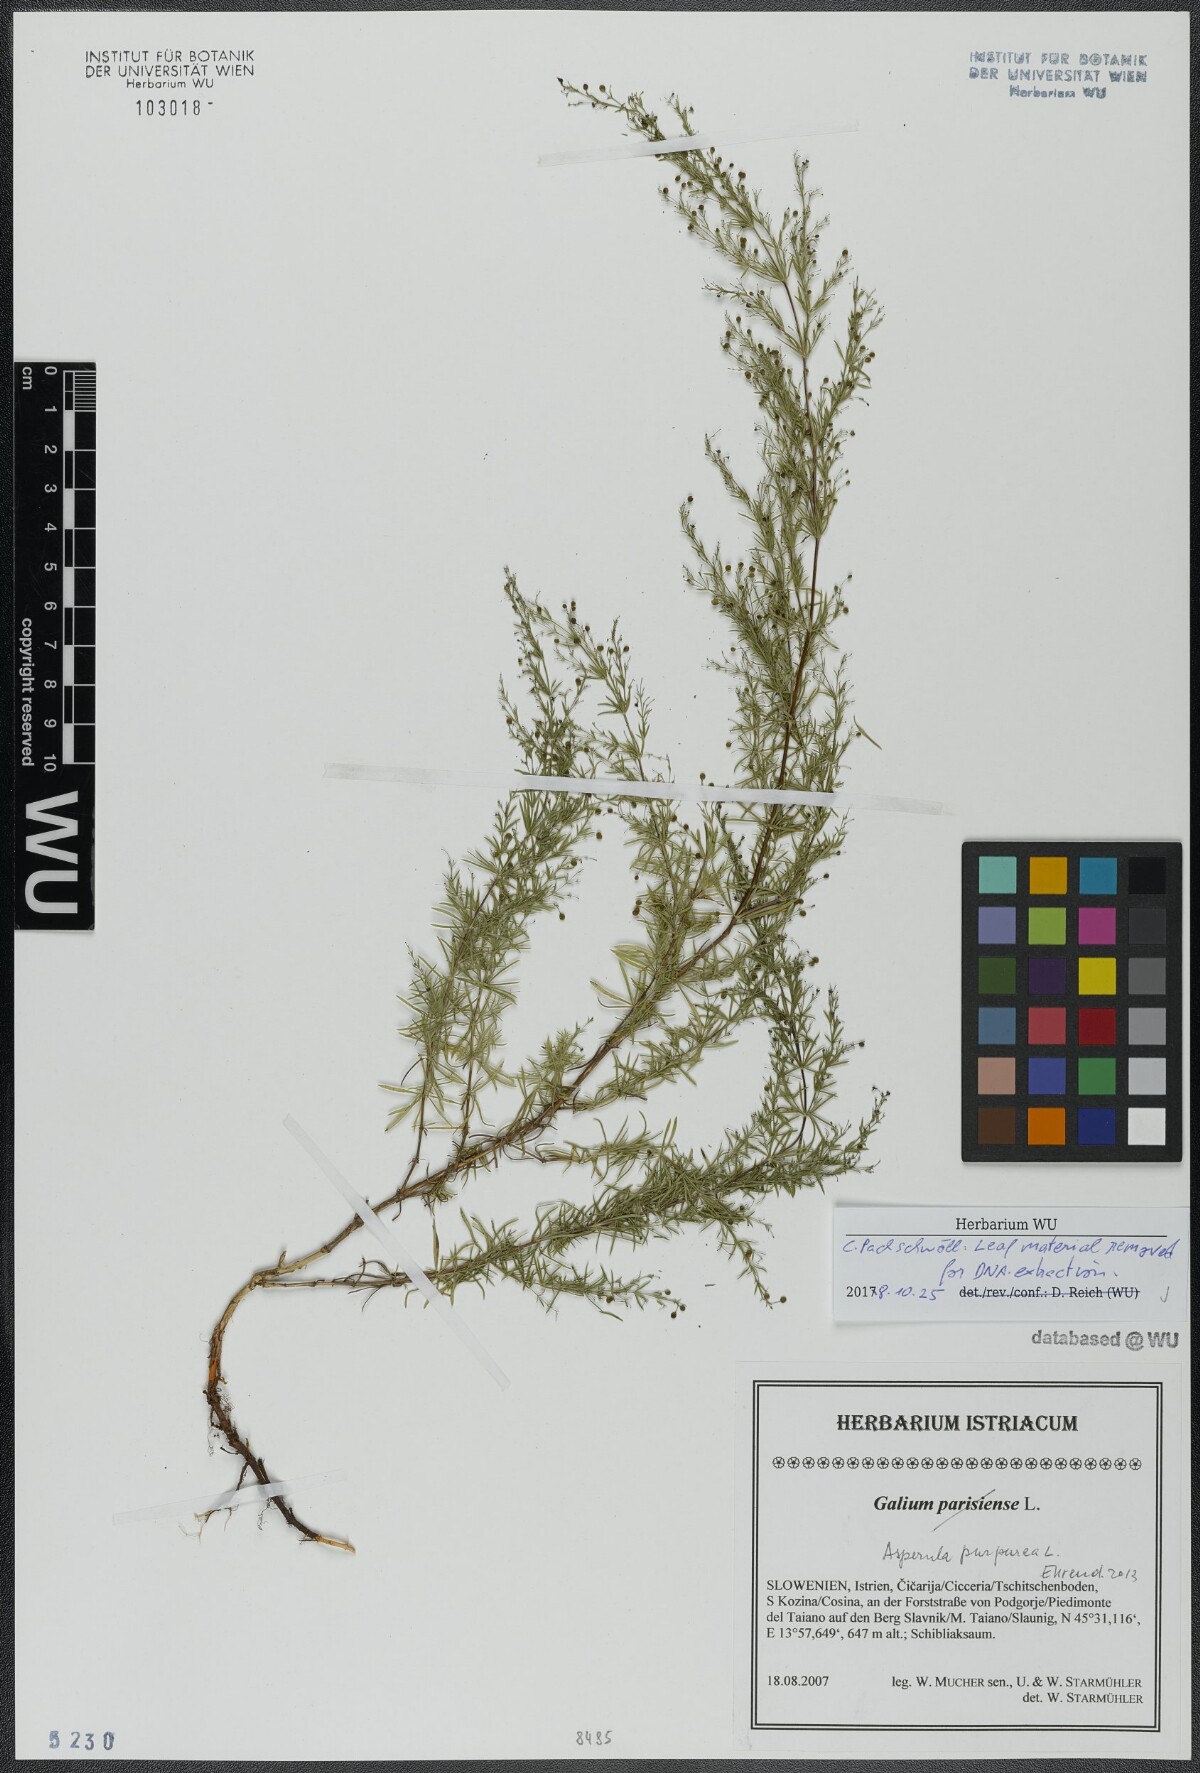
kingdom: Plantae
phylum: Tracheophyta
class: Magnoliopsida
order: Gentianales
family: Rubiaceae
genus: Thliphthisa
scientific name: Thliphthisa purpurea
